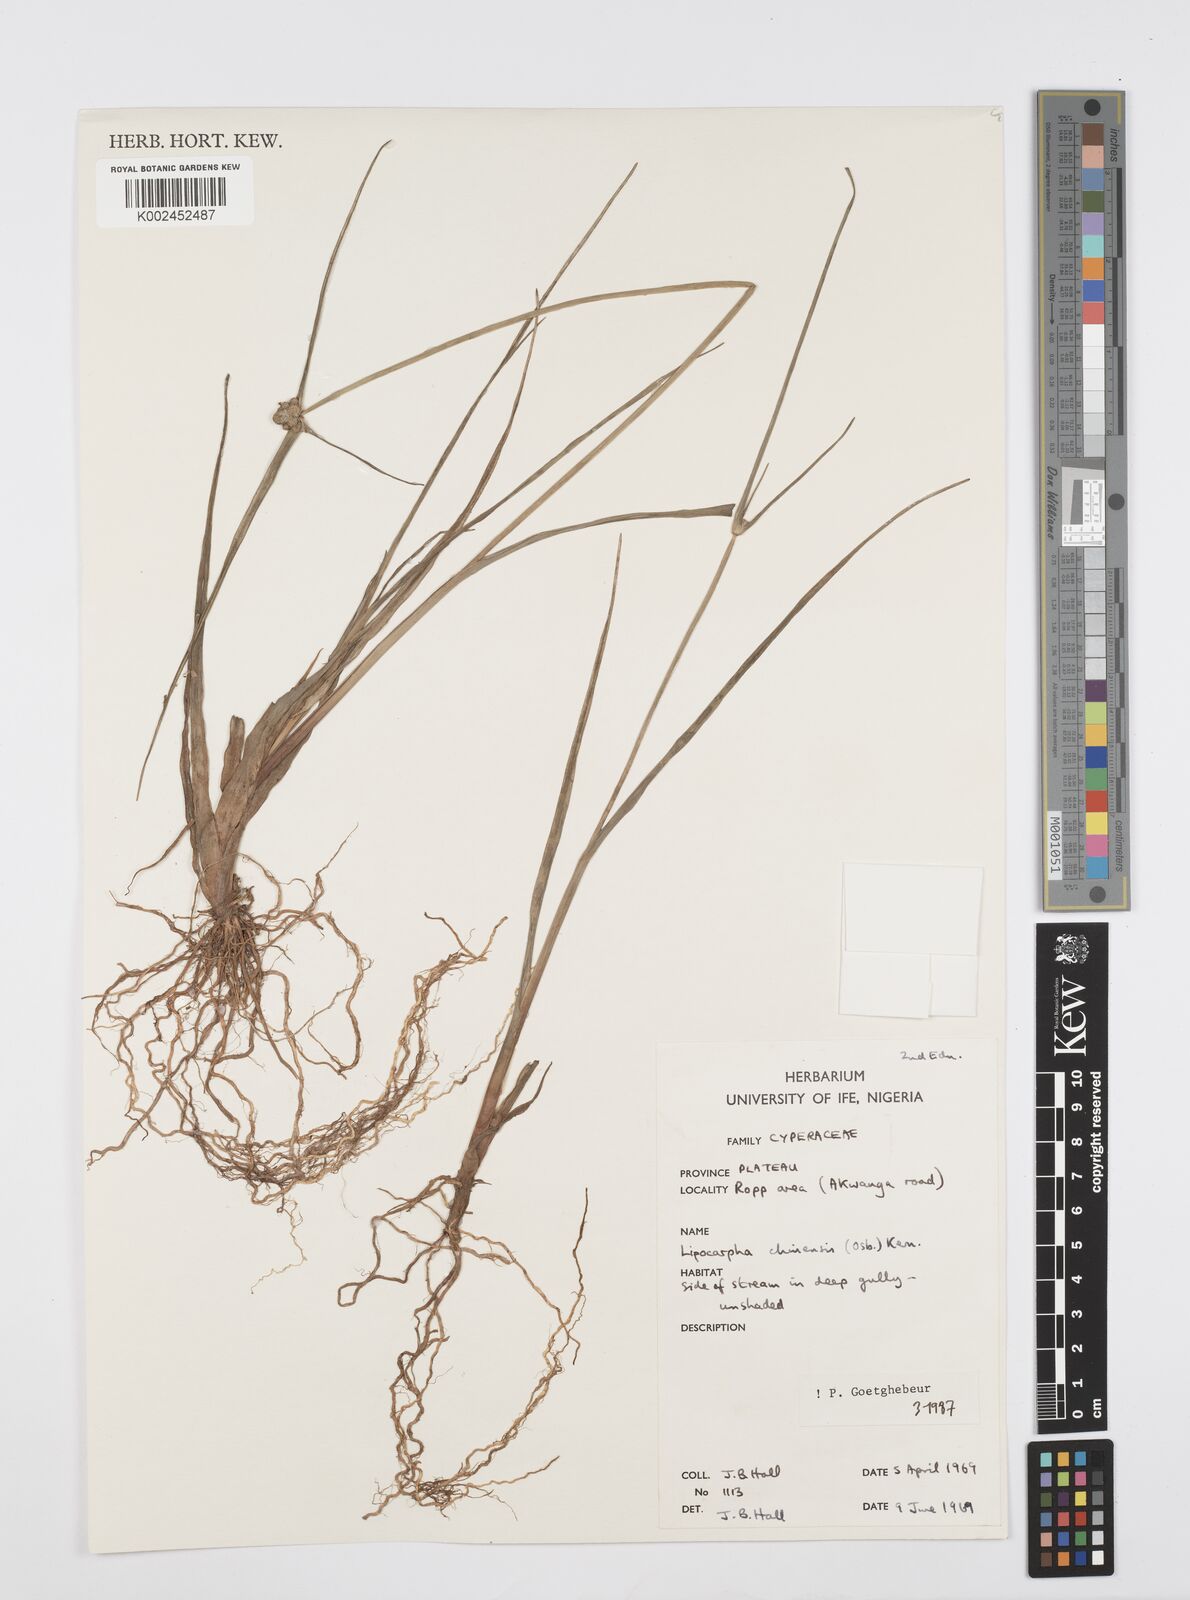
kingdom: Plantae
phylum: Tracheophyta
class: Liliopsida
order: Poales
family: Cyperaceae
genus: Cyperus
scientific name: Cyperus albescens
